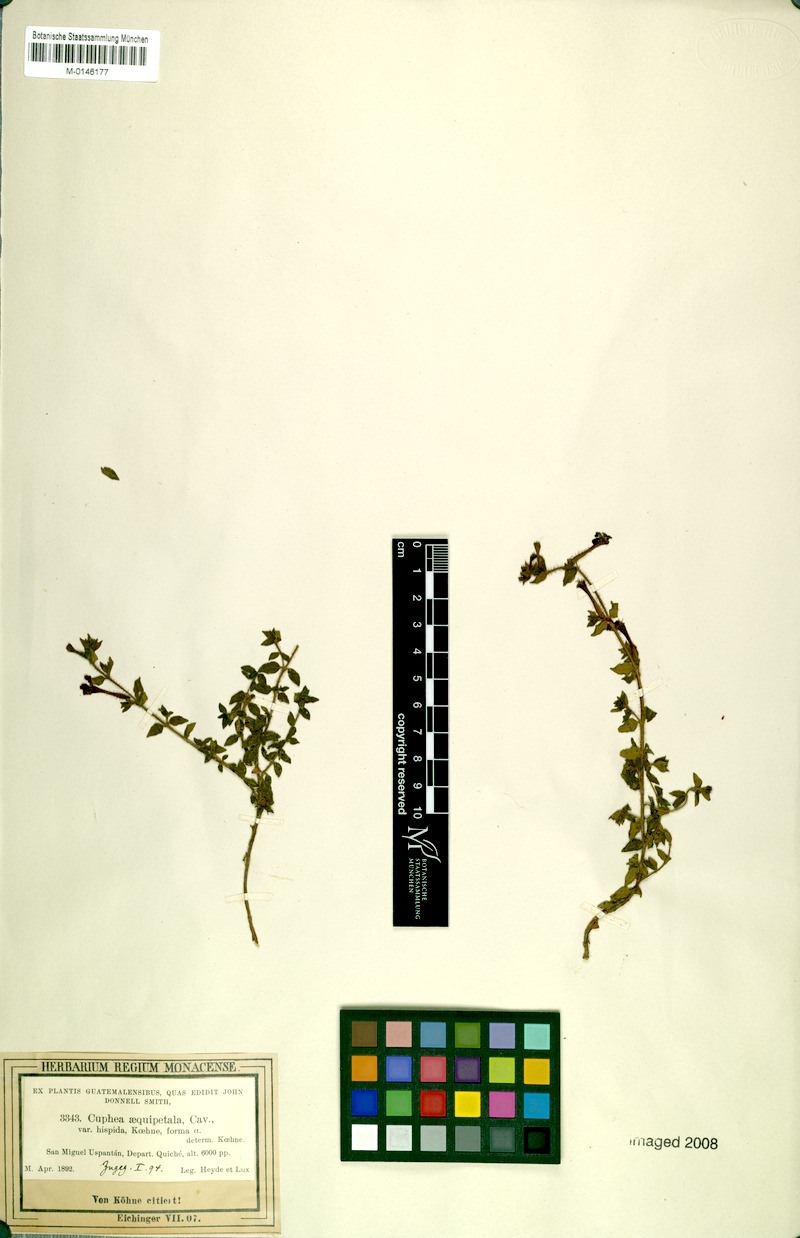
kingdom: Plantae
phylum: Tracheophyta
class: Magnoliopsida
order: Myrtales
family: Lythraceae
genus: Cuphea
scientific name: Cuphea aequipetala
